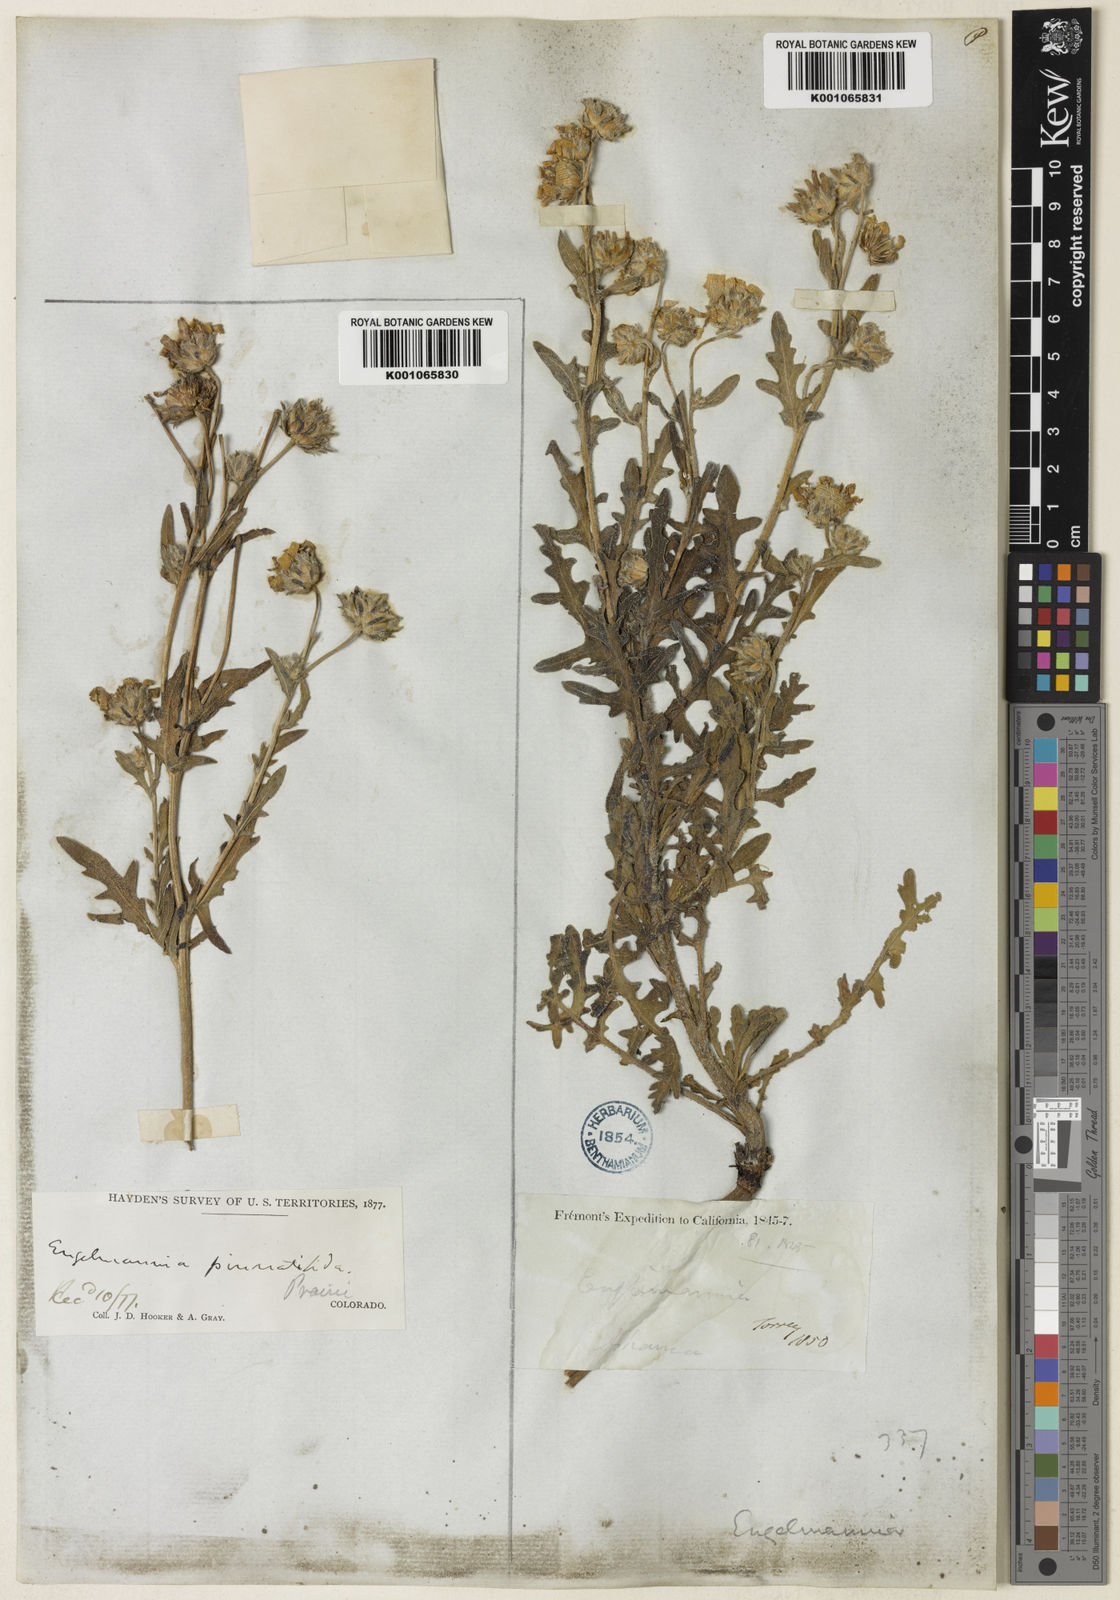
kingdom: Plantae
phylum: Tracheophyta
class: Magnoliopsida
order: Asterales
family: Asteraceae
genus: Engelmannia
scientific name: Engelmannia
